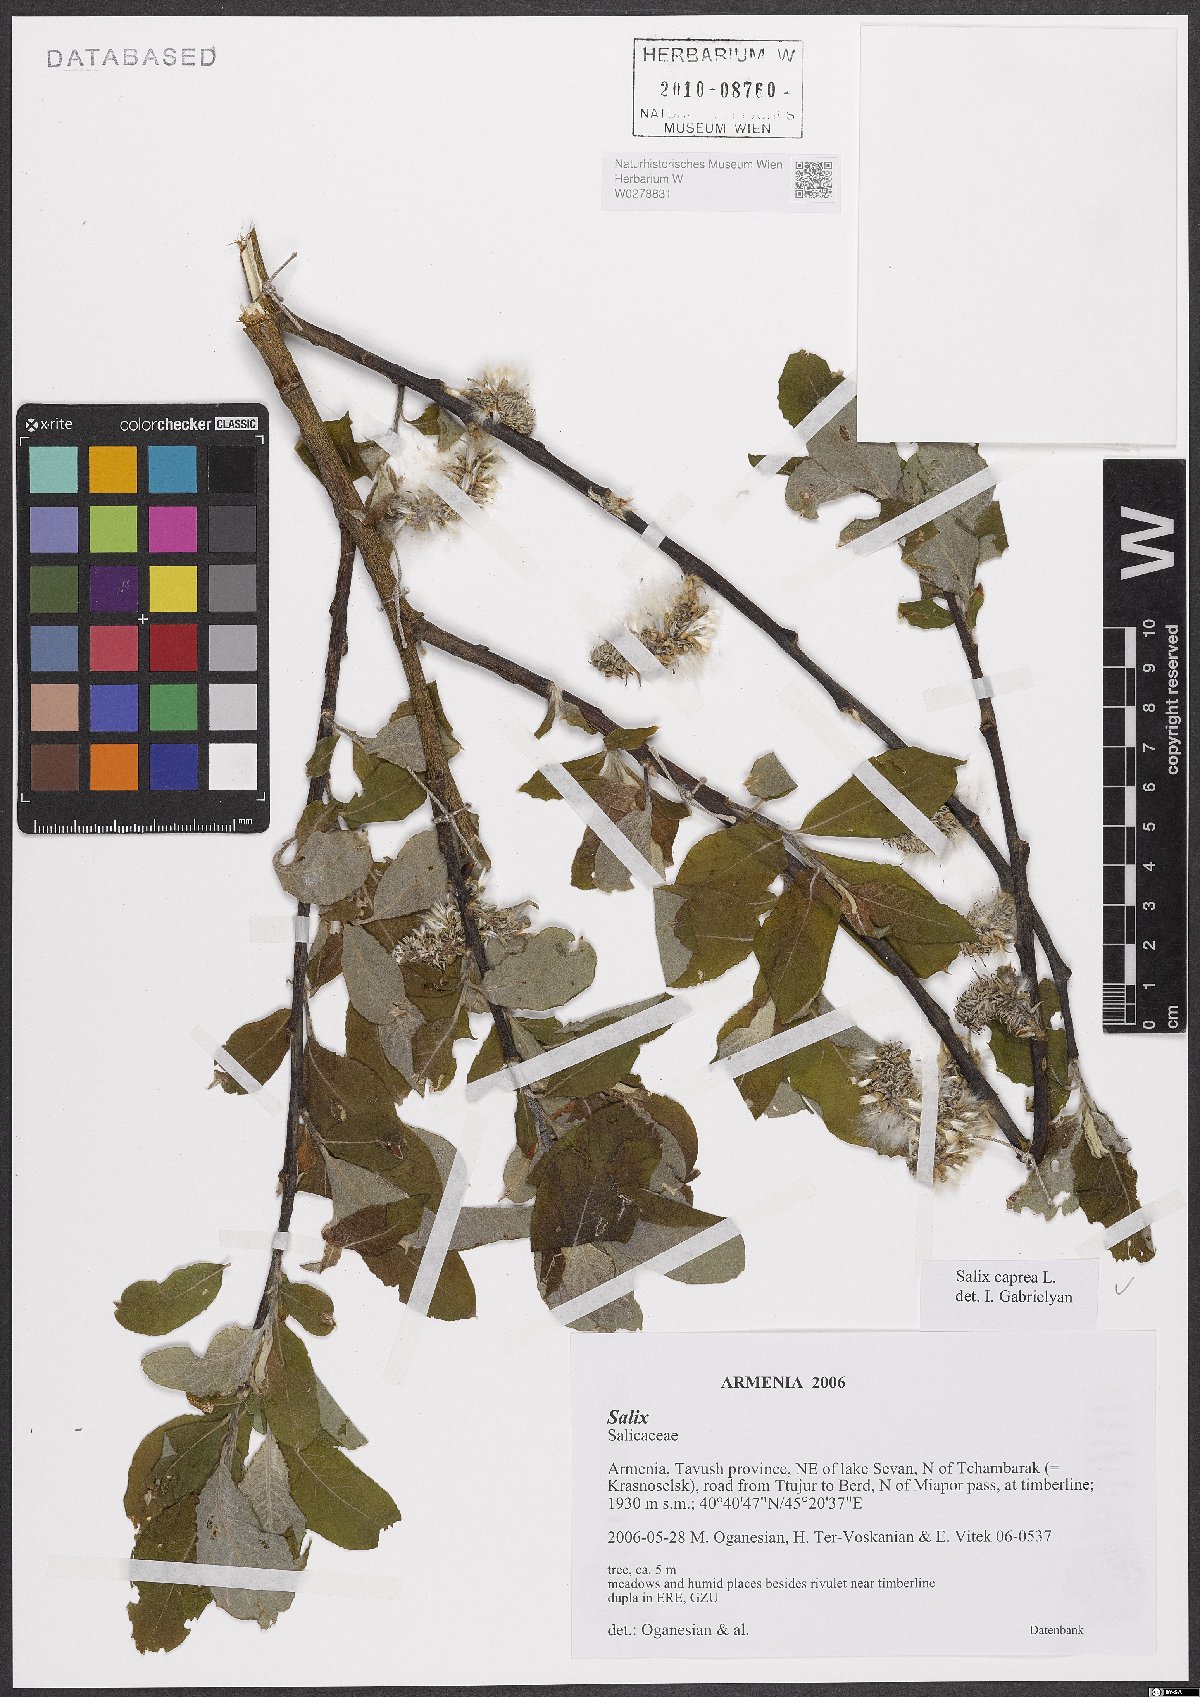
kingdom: Plantae
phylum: Tracheophyta
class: Magnoliopsida
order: Malpighiales
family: Salicaceae
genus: Salix
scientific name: Salix caprea
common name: Goat willow
